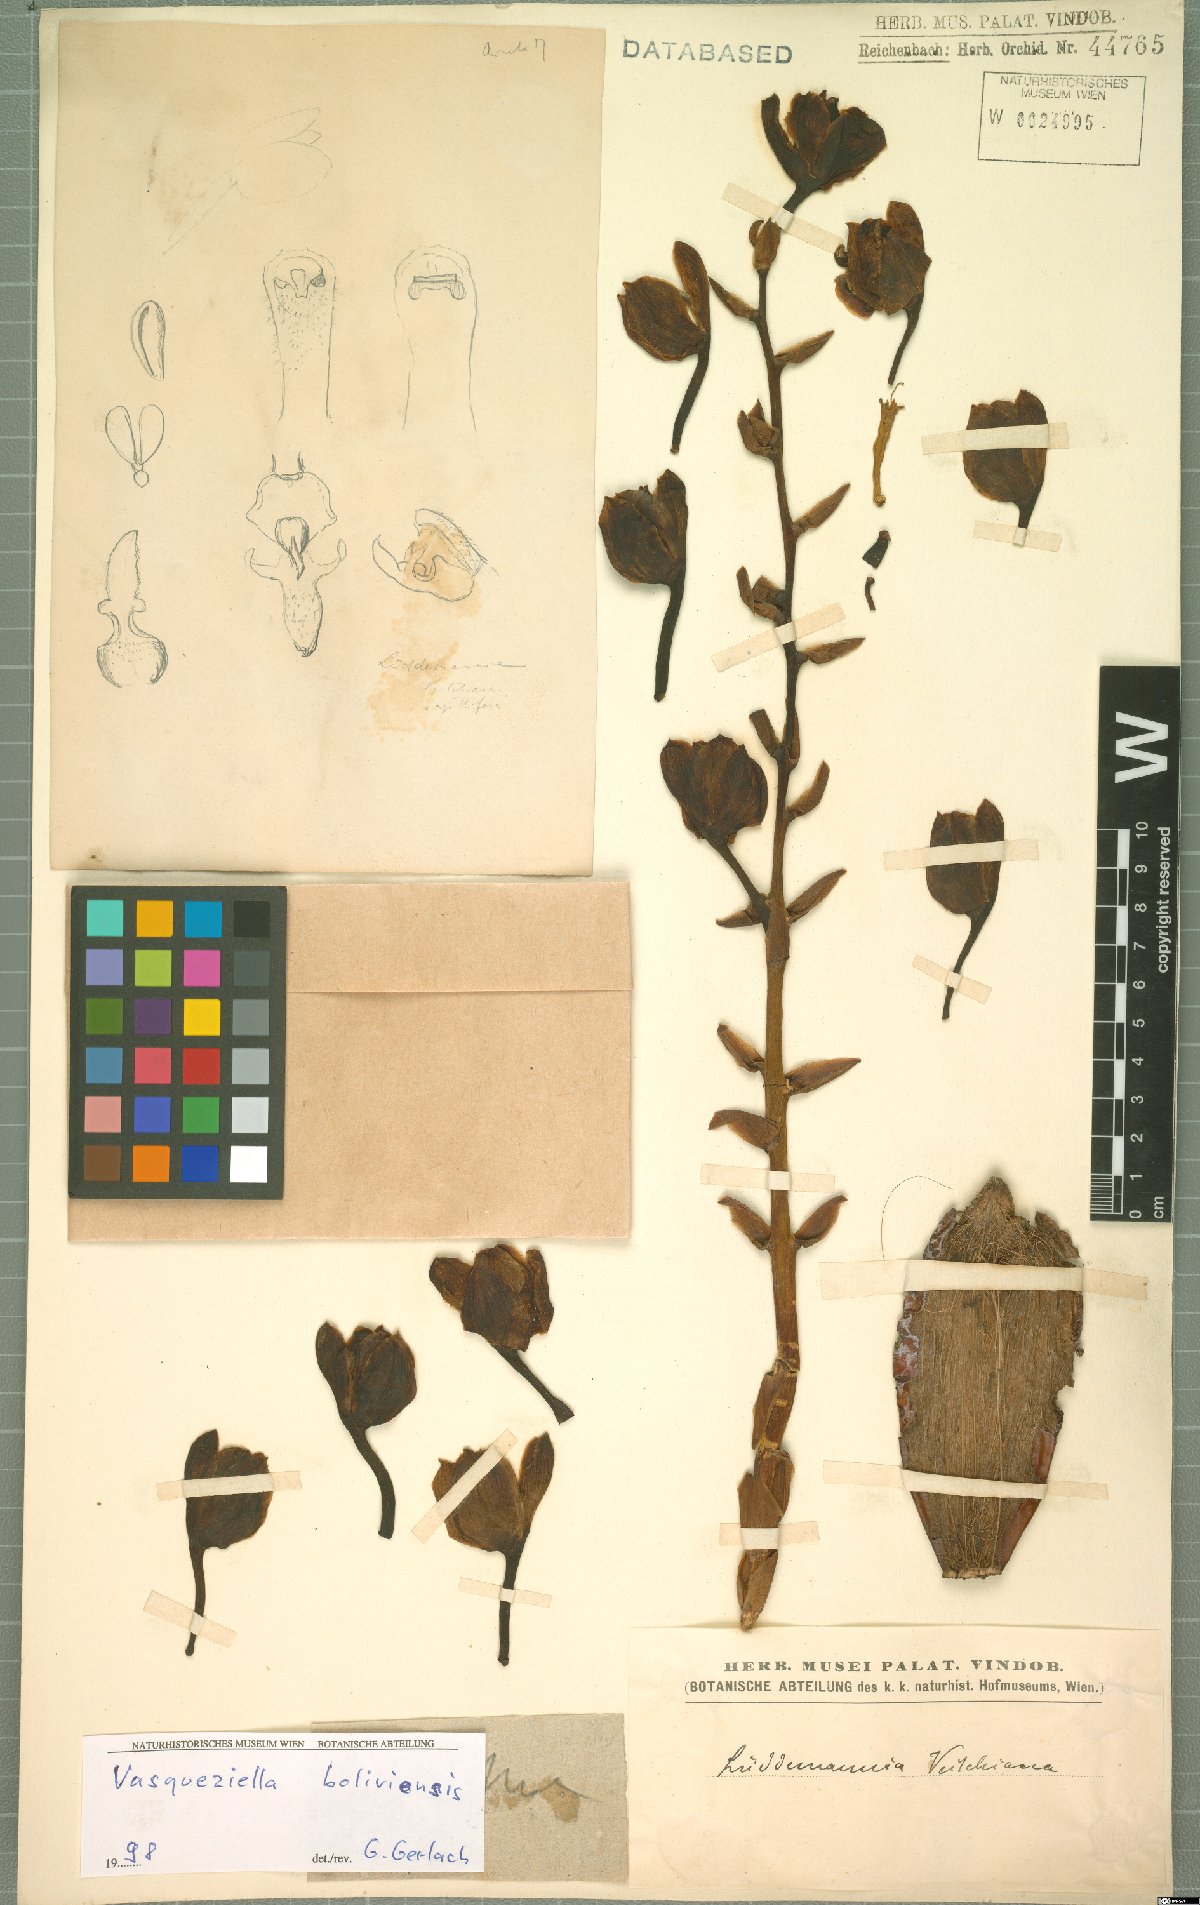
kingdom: Plantae
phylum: Tracheophyta
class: Liliopsida
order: Asparagales
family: Orchidaceae
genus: Vasqueziella
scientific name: Vasqueziella boliviana
